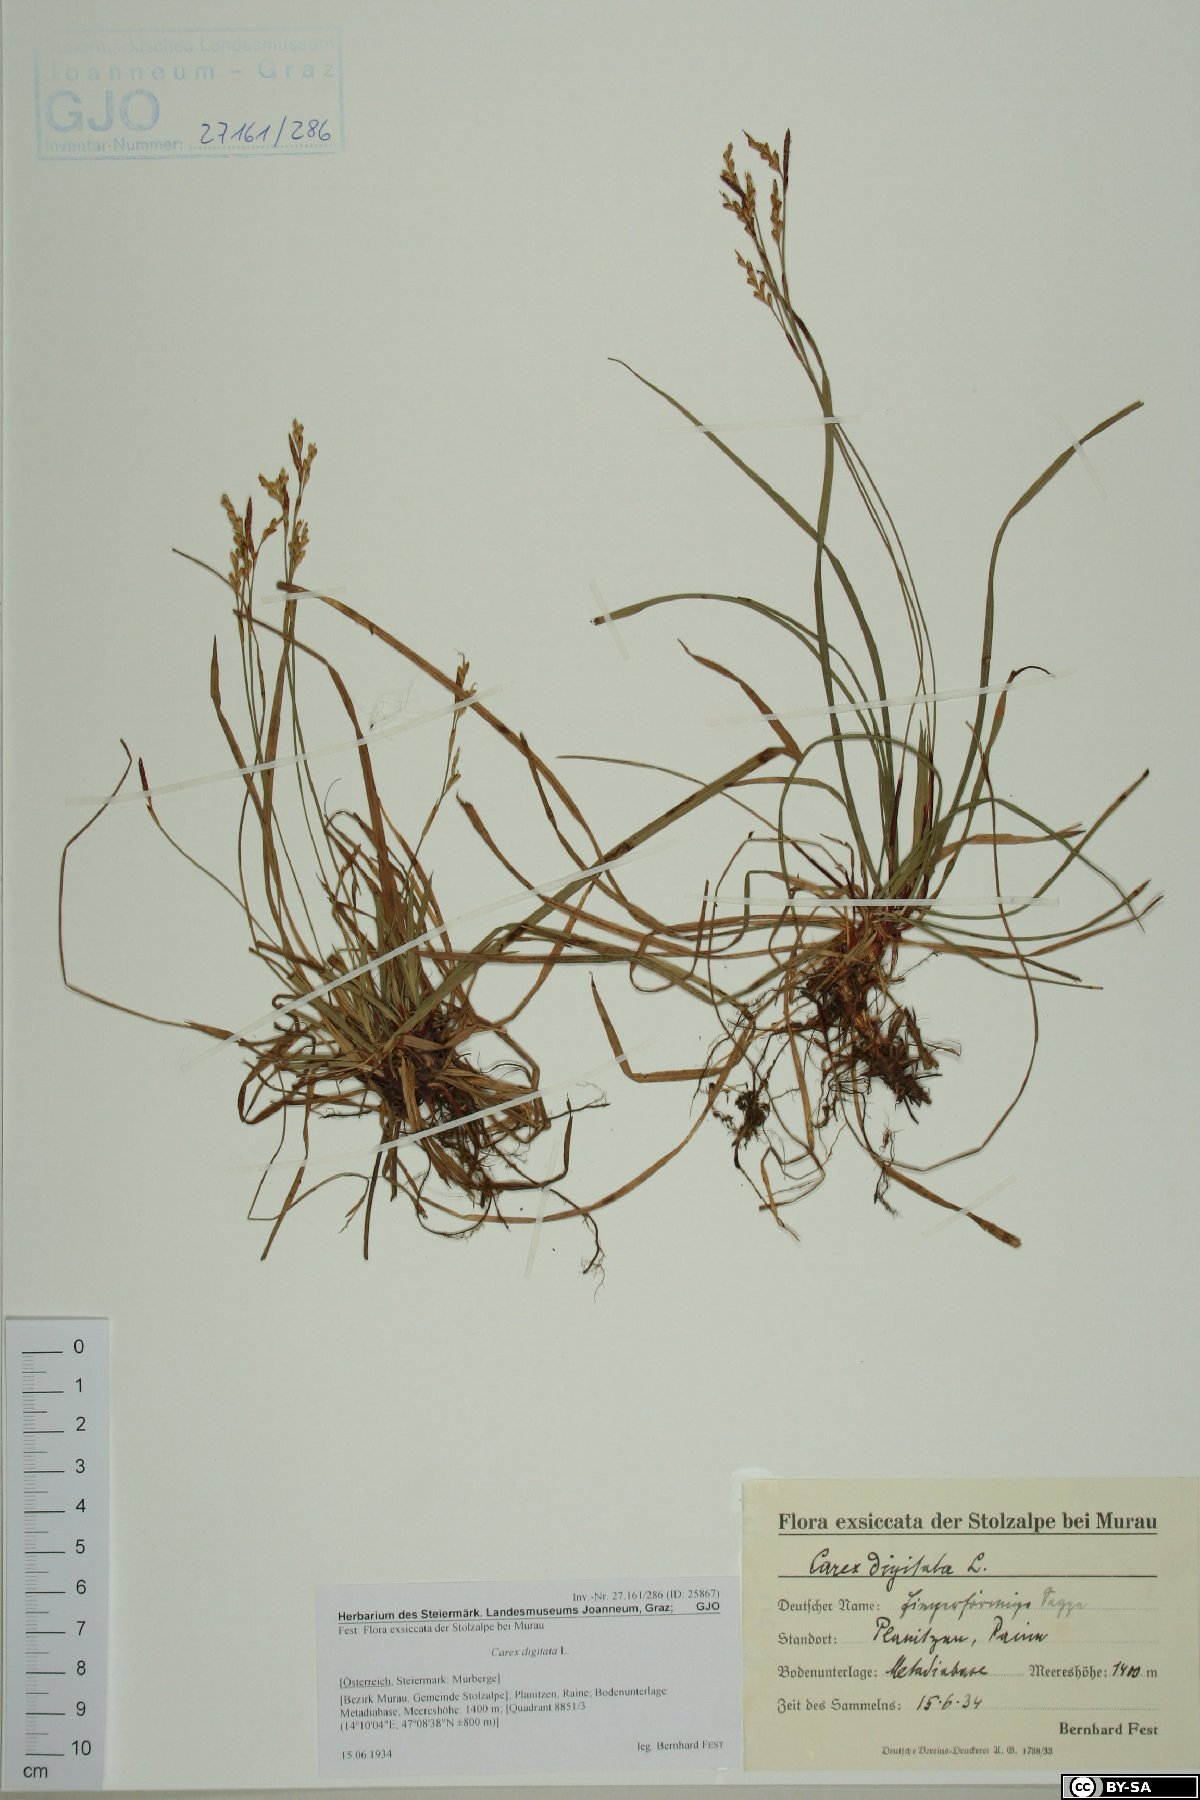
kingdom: Plantae
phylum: Tracheophyta
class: Liliopsida
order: Poales
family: Cyperaceae
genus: Carex
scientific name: Carex digitata
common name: Fingered sedge
